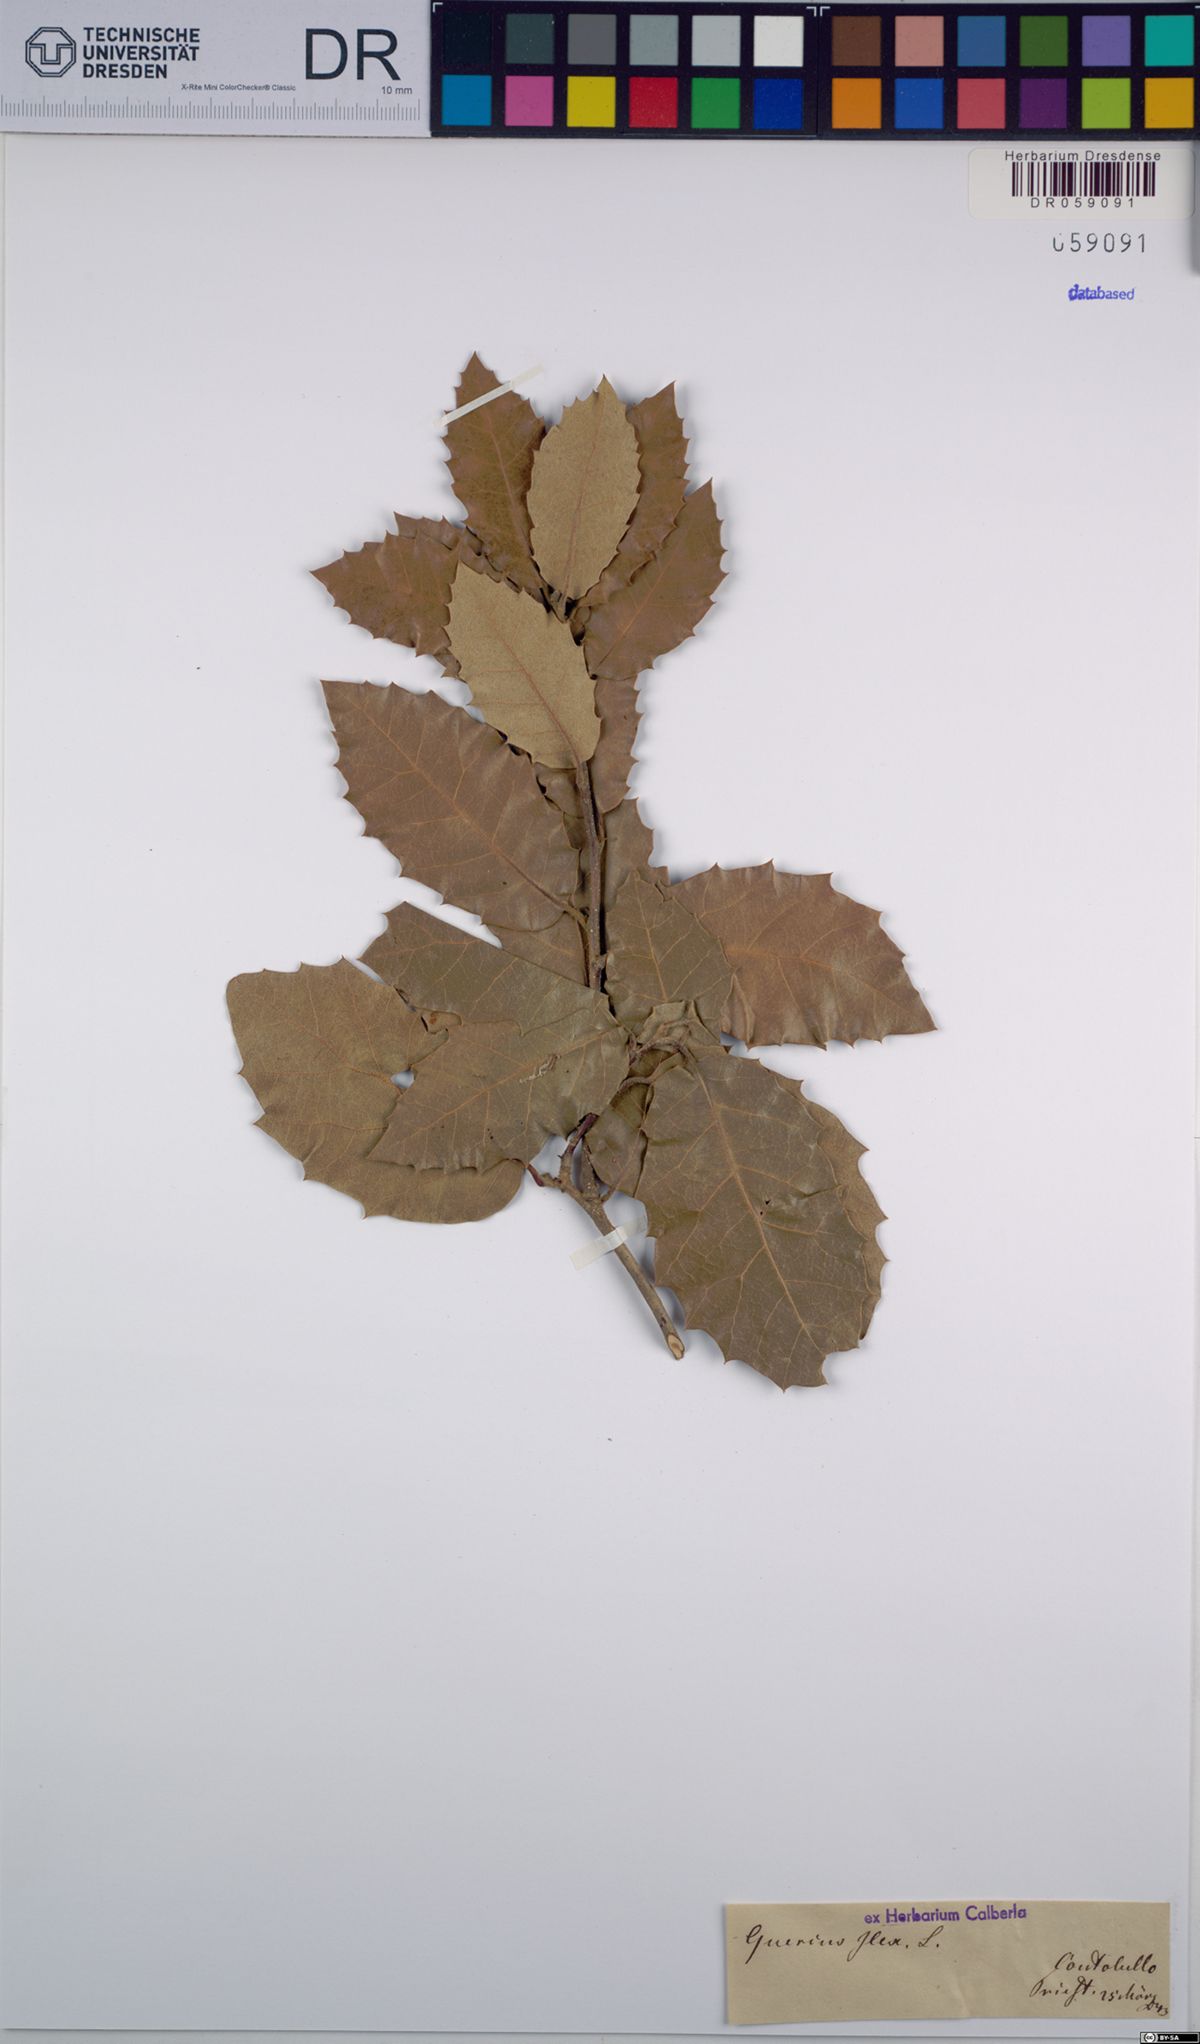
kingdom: Plantae
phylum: Tracheophyta
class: Magnoliopsida
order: Fagales
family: Fagaceae
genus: Quercus
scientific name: Quercus ilex
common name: Evergreen oak
